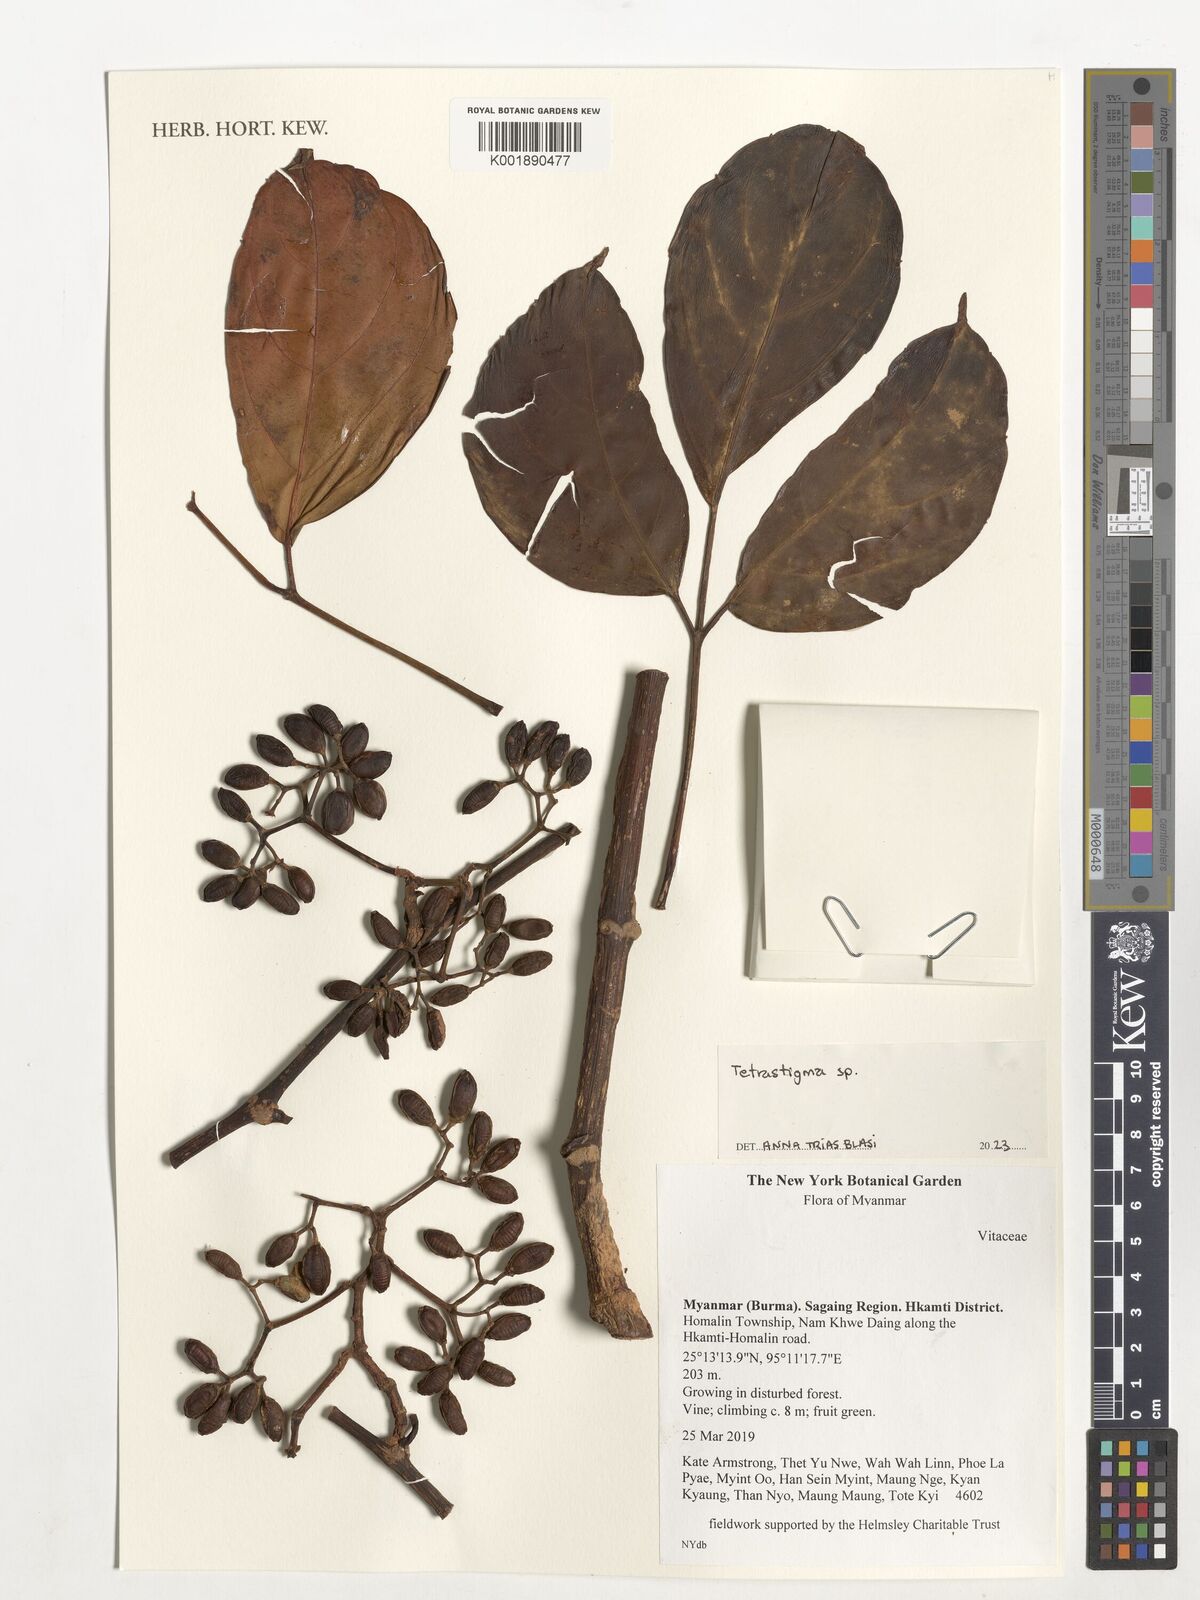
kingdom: Plantae
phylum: Tracheophyta
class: Magnoliopsida
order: Vitales
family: Vitaceae
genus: Tetrastigma
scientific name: Tetrastigma
